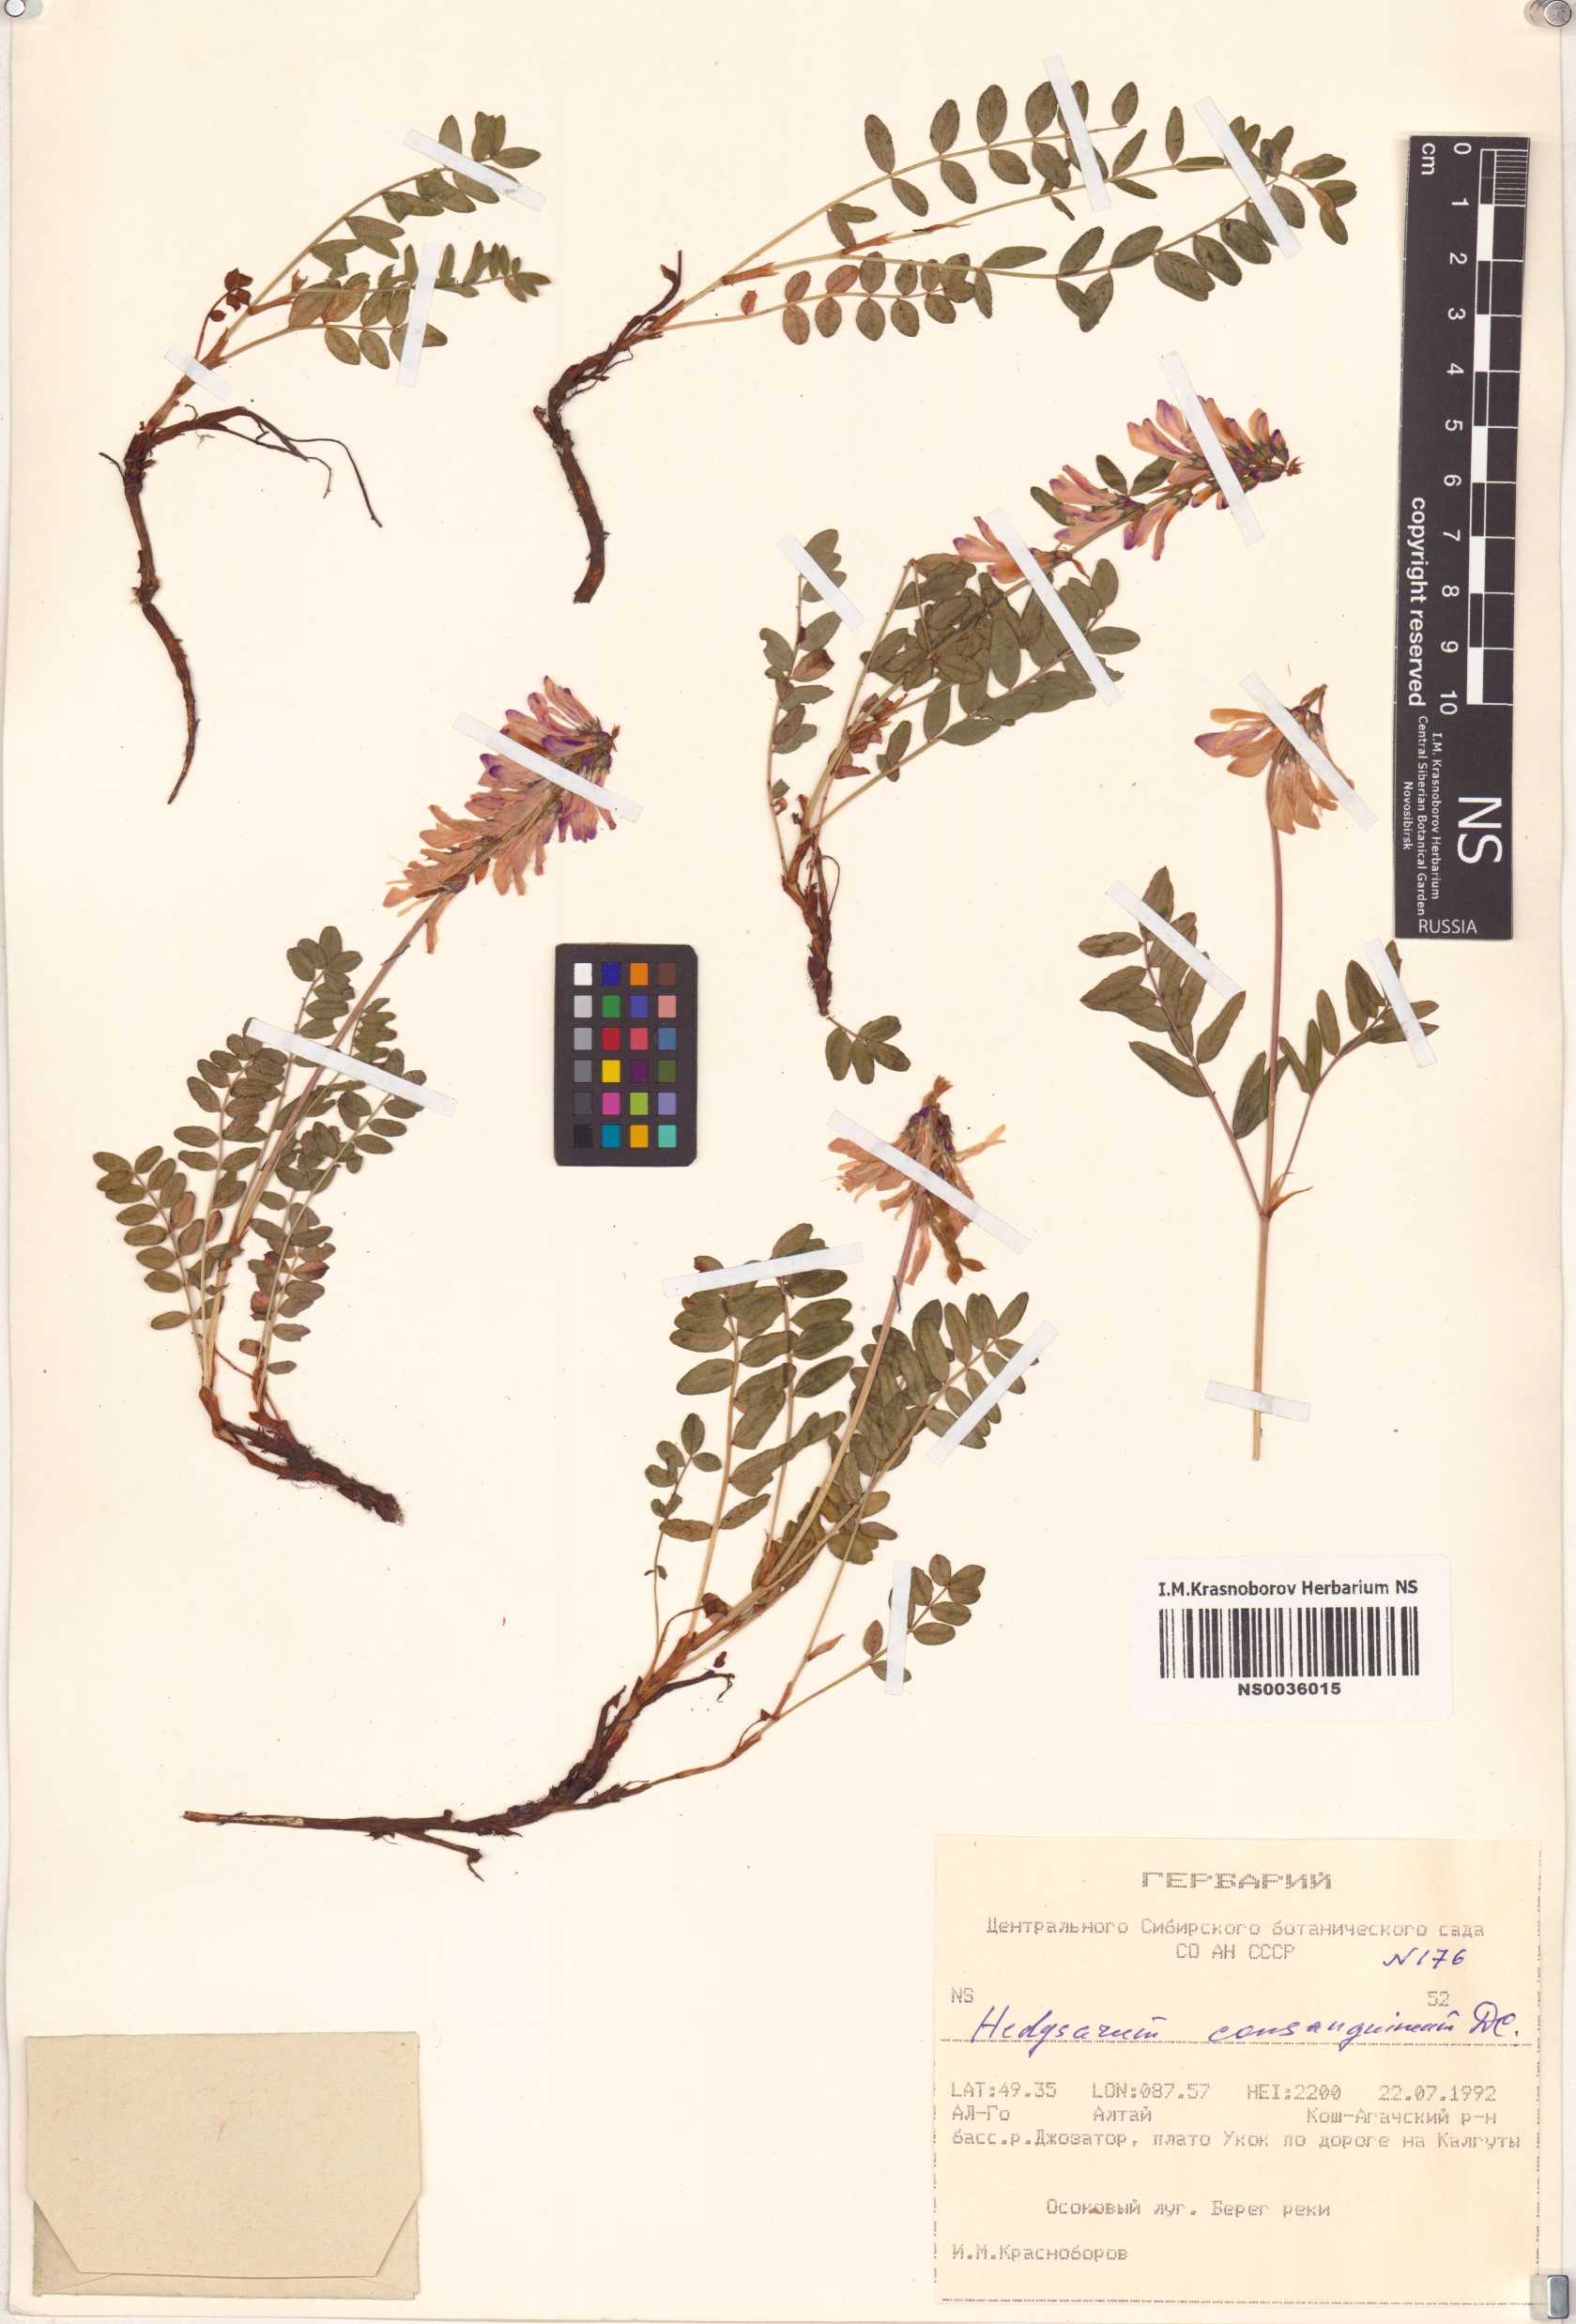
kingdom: Plantae
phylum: Tracheophyta
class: Magnoliopsida
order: Fabales
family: Fabaceae
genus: Hedysarum
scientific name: Hedysarum consanguineum
